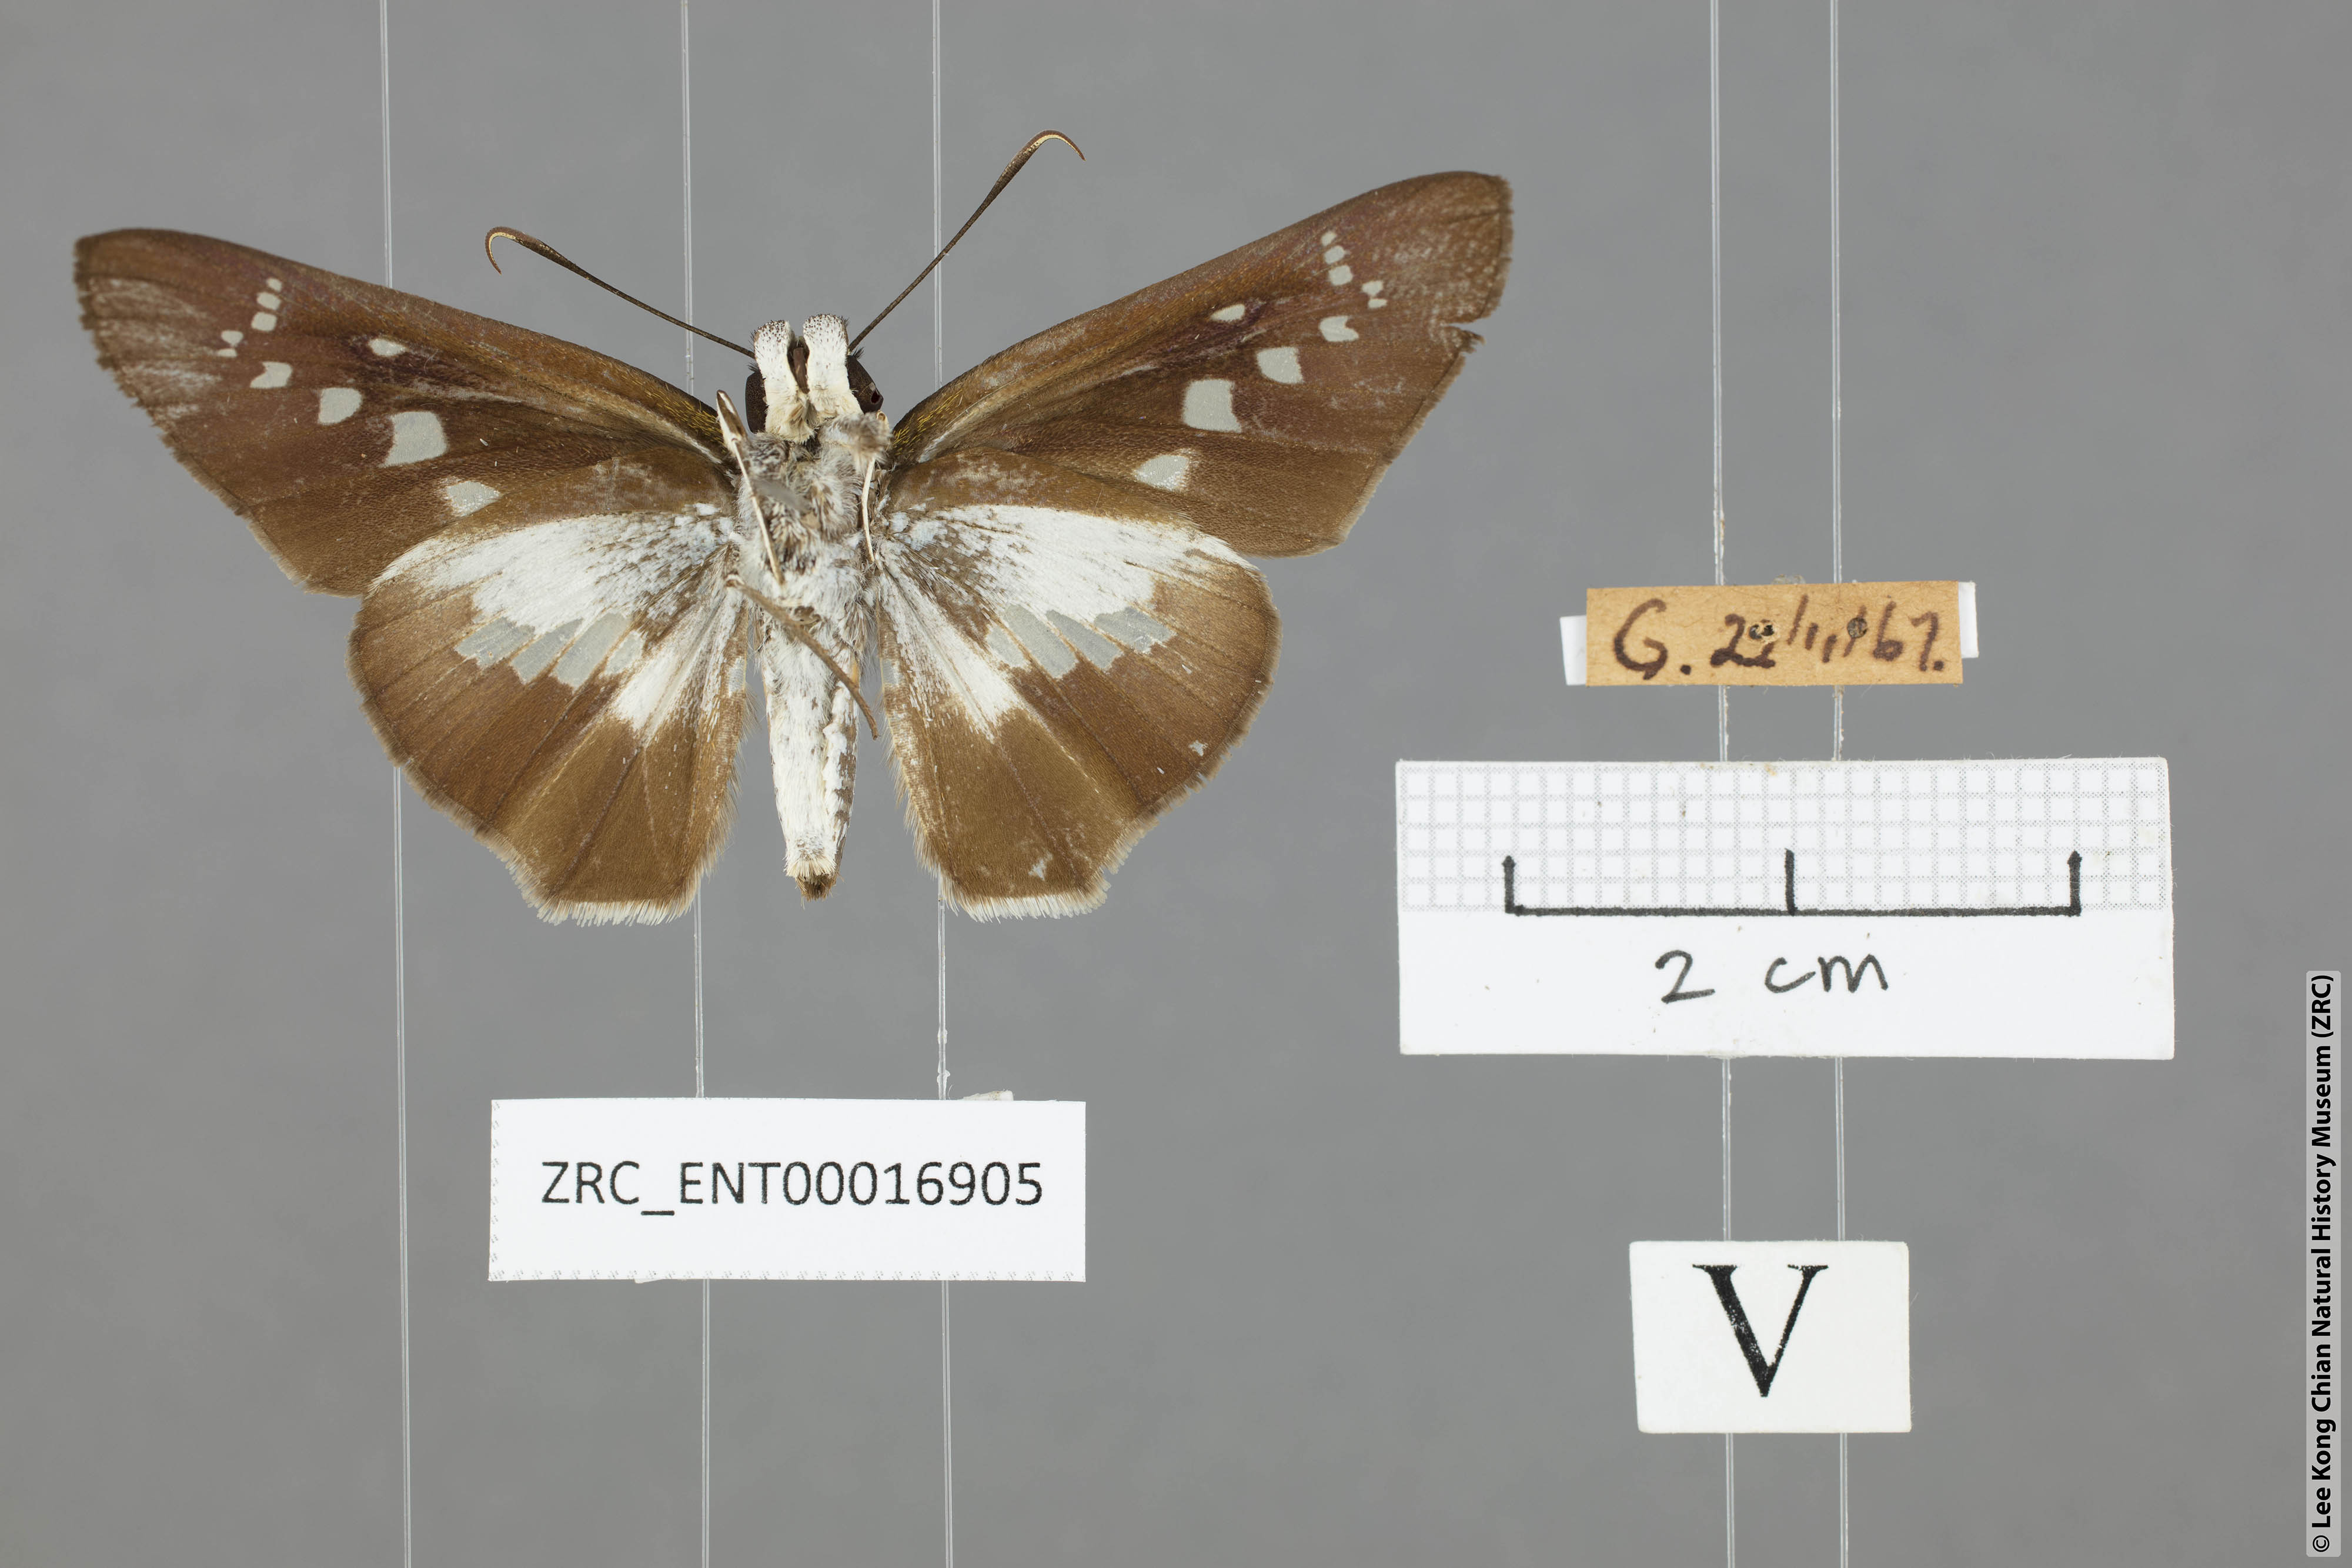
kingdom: Animalia
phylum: Arthropoda
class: Insecta
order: Lepidoptera
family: Hesperiidae
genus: Eetion
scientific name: Eetion elia
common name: White spotted palmer
